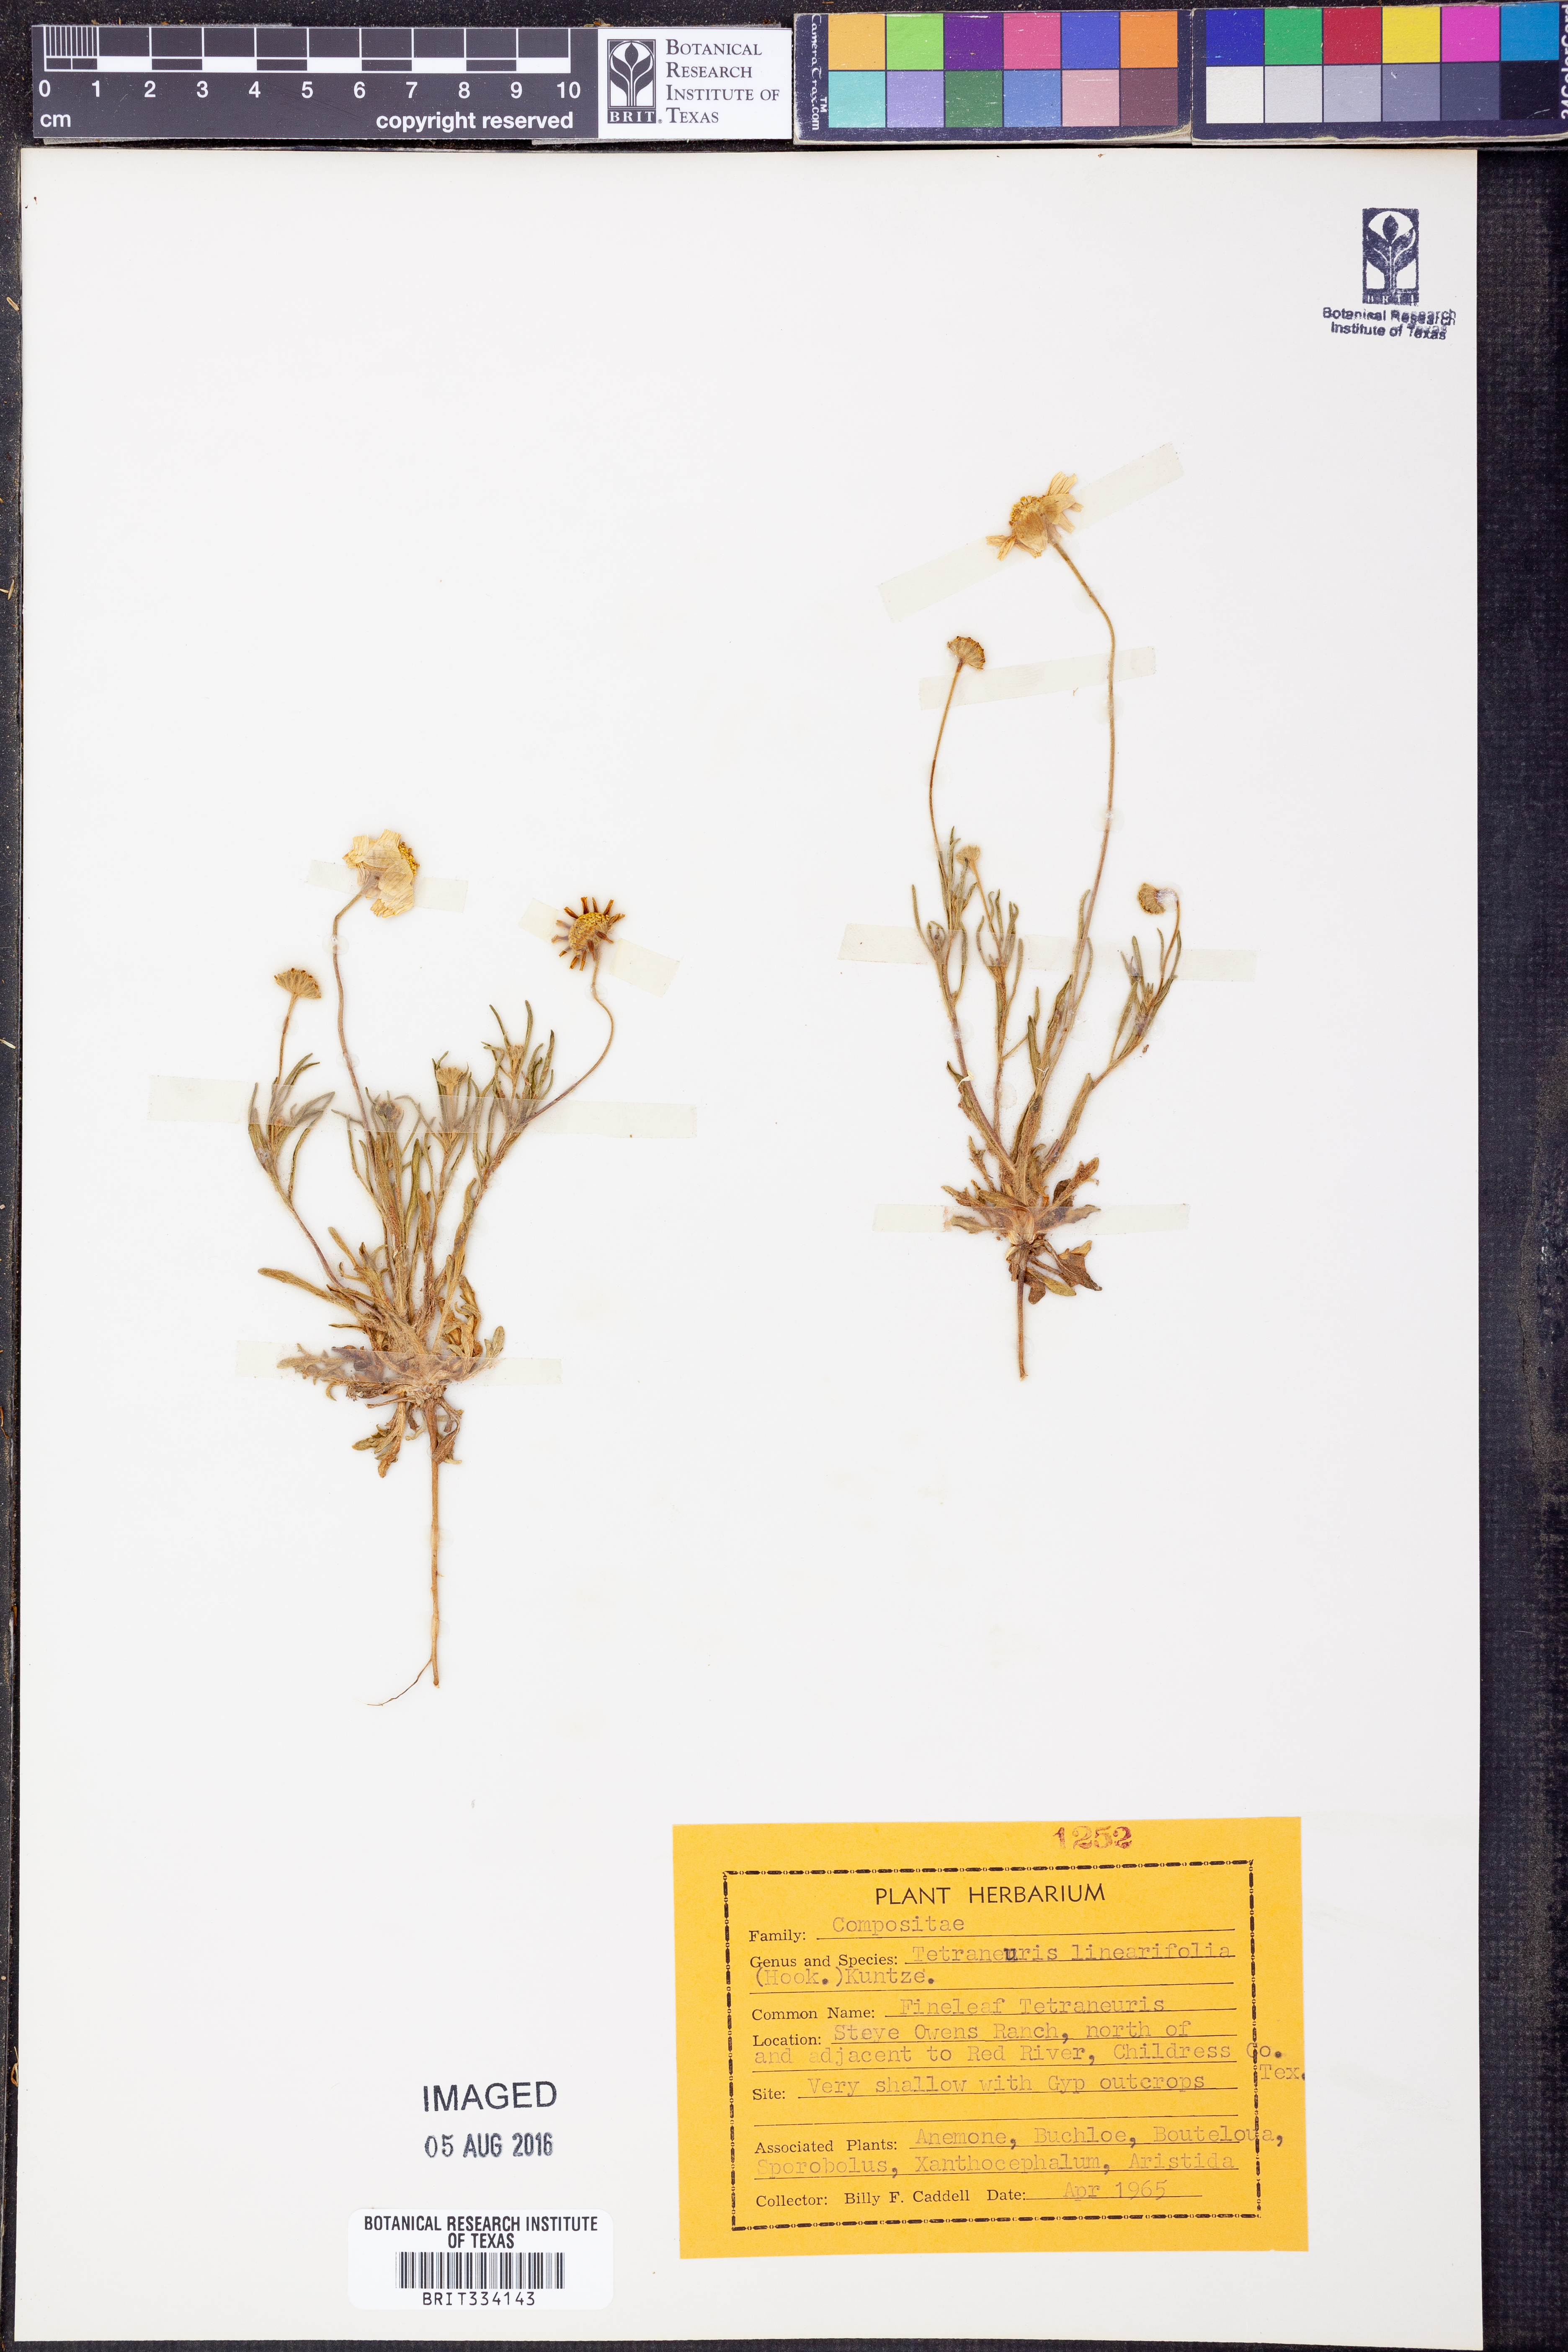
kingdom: Plantae
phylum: Tracheophyta
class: Magnoliopsida
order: Asterales
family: Asteraceae
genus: Tetraneuris
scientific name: Tetraneuris linearifolia
